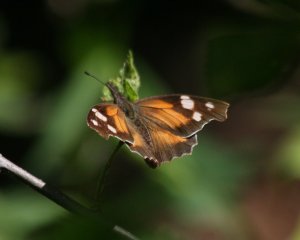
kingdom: Animalia
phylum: Arthropoda
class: Insecta
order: Lepidoptera
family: Nymphalidae
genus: Libytheana
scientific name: Libytheana carinenta
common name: American Snout
